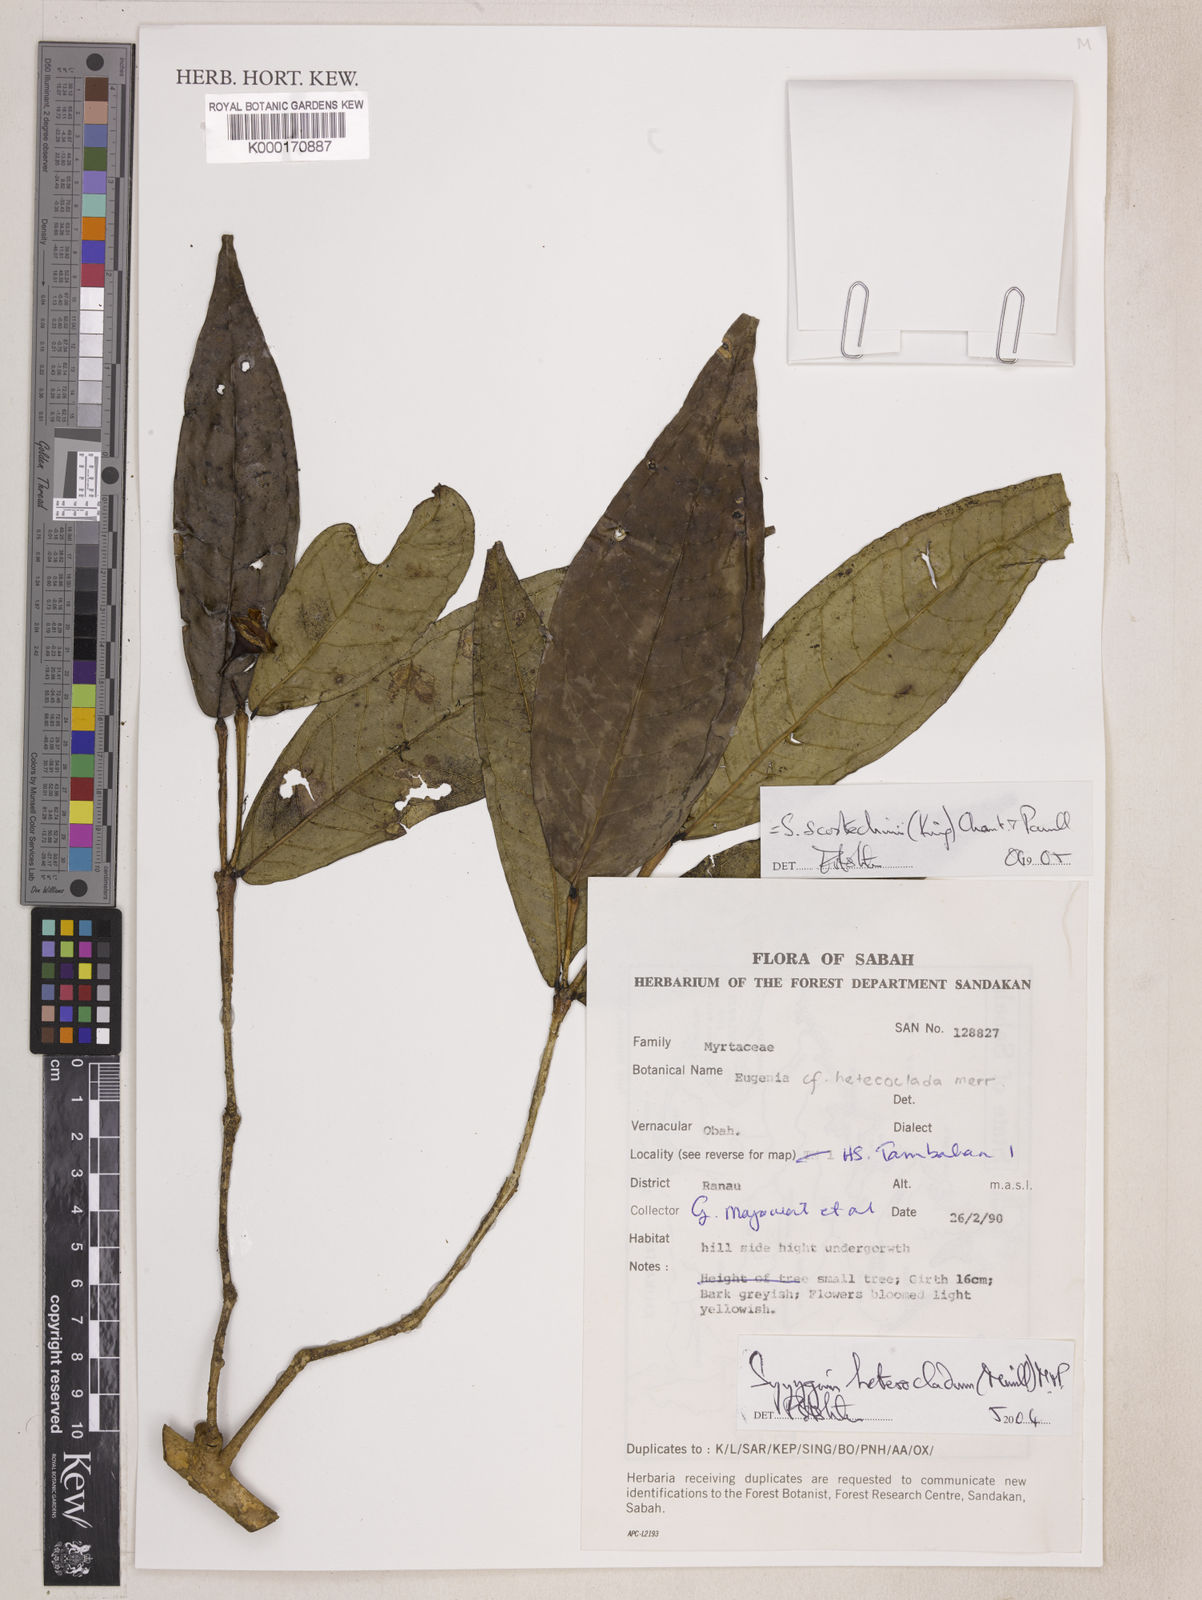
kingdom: Plantae
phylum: Tracheophyta
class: Magnoliopsida
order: Myrtales
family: Myrtaceae
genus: Syzygium
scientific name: Syzygium scortechinii
